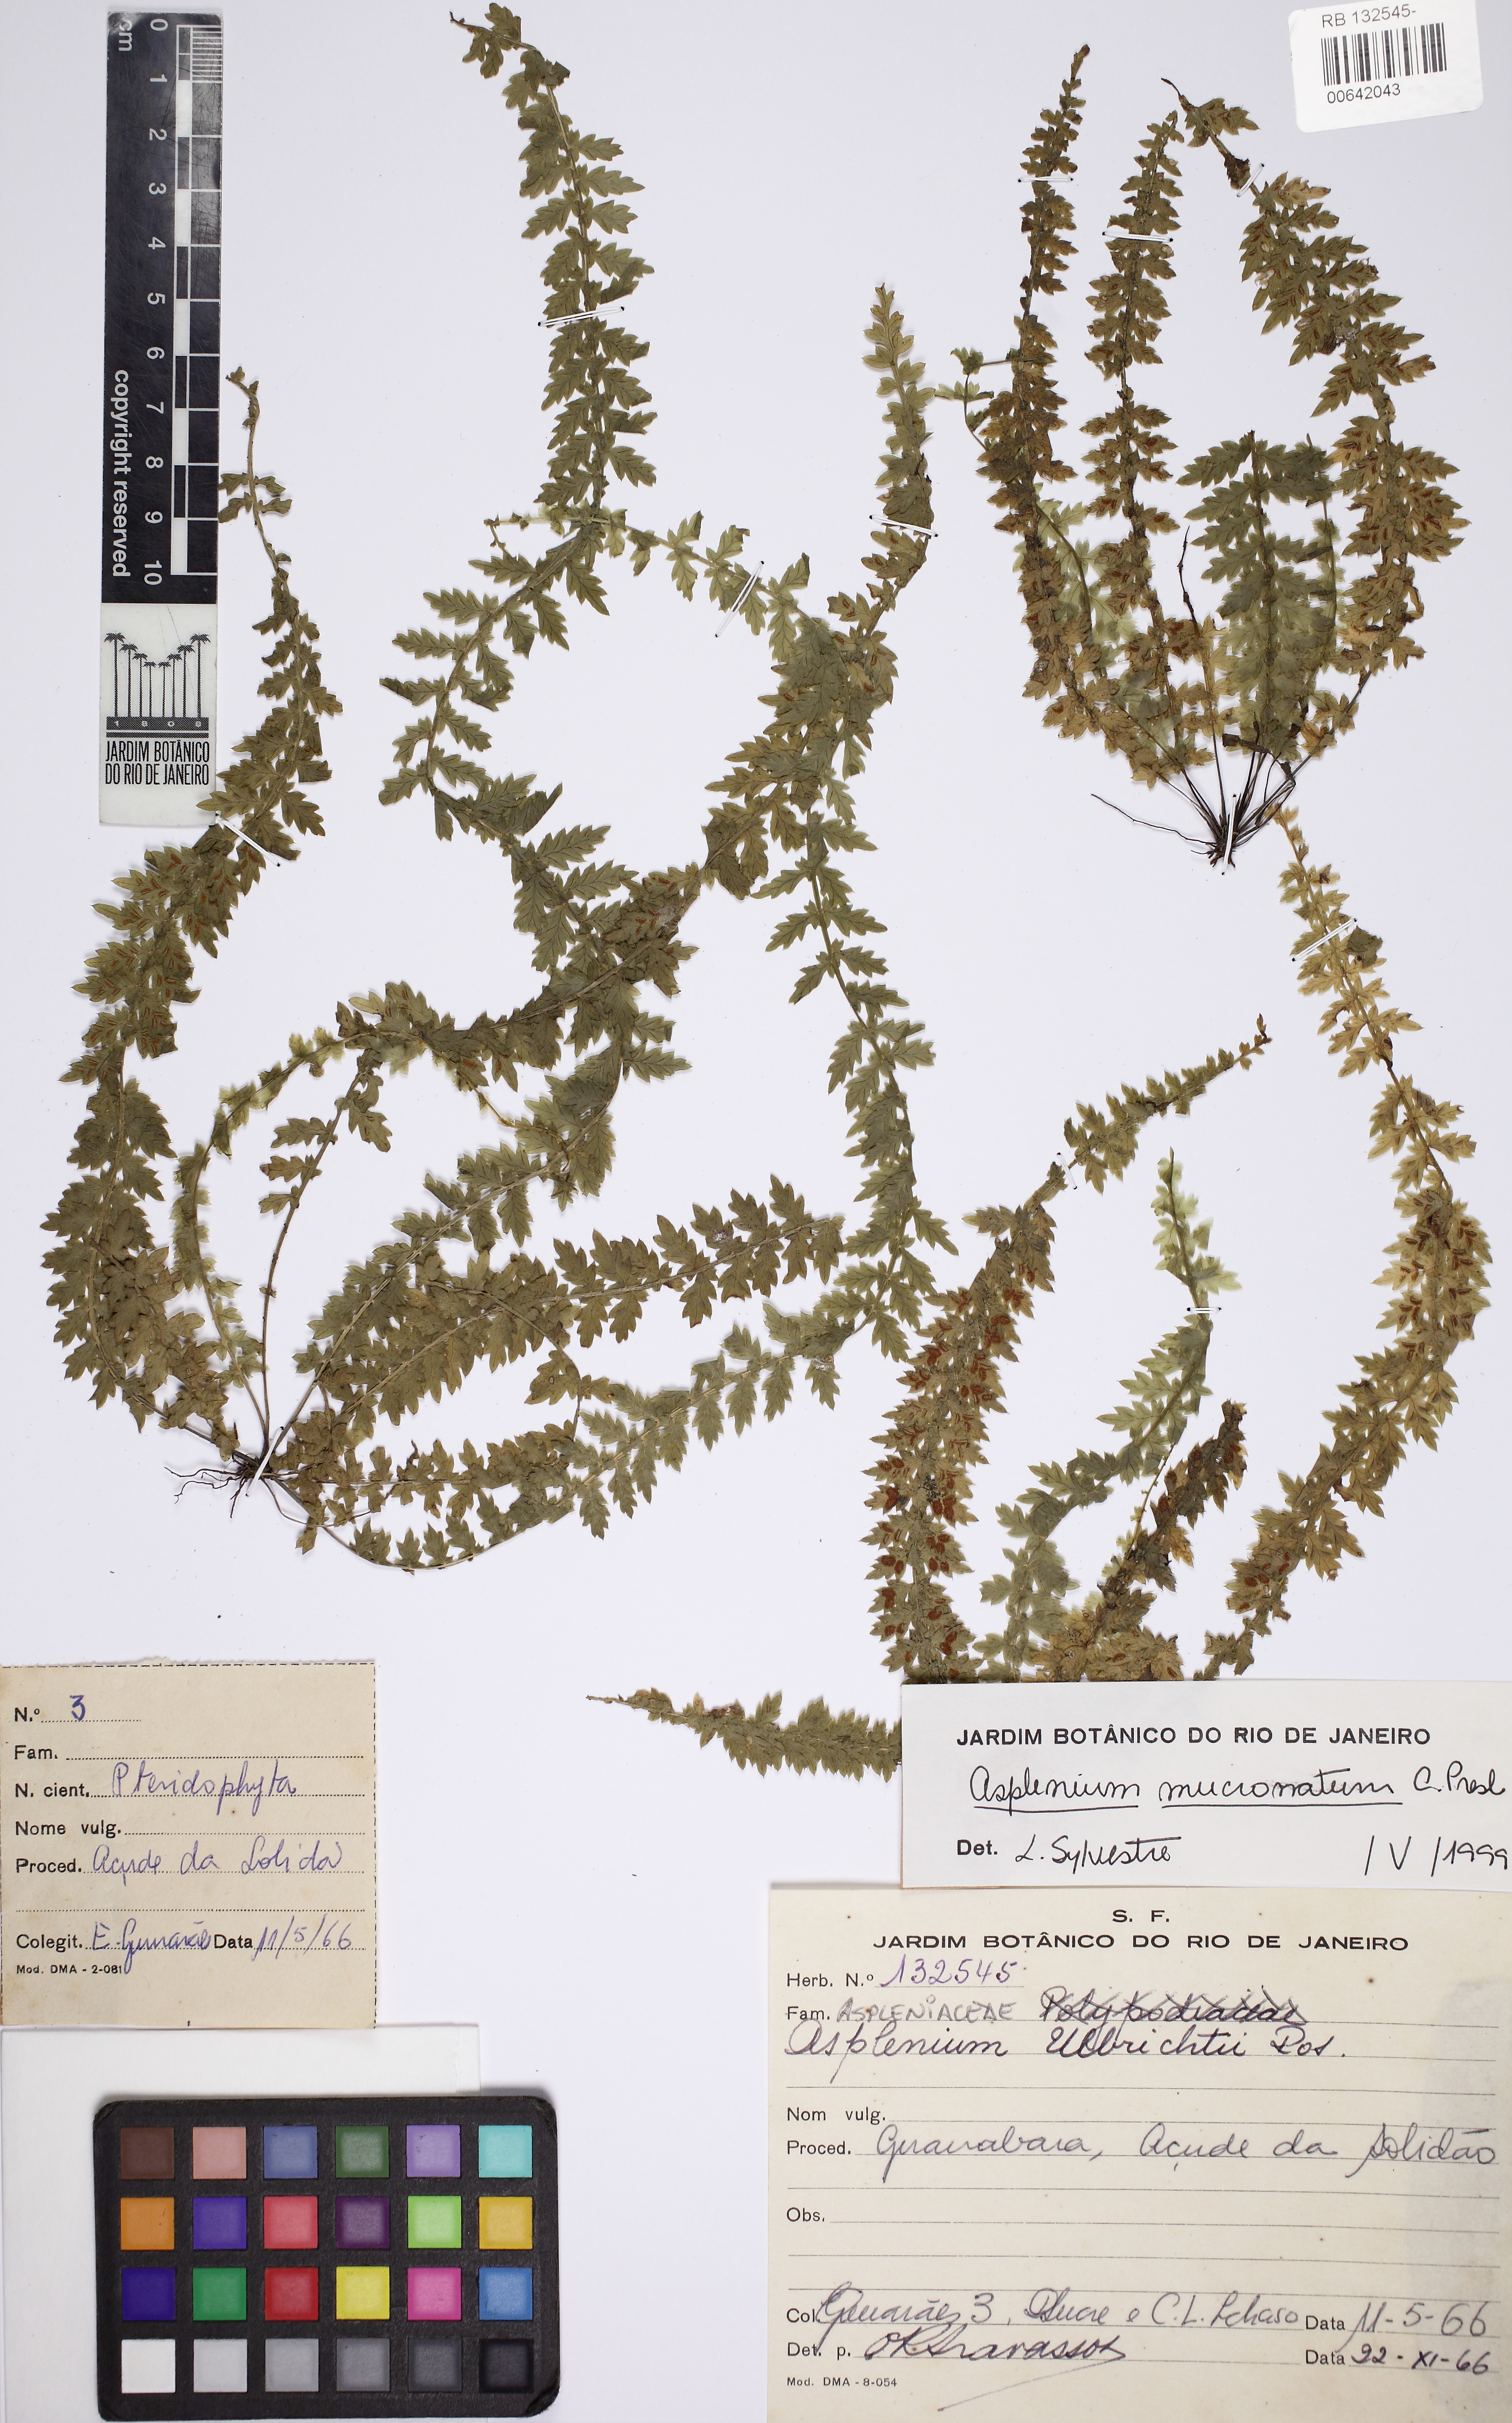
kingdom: Plantae
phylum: Tracheophyta
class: Polypodiopsida
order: Polypodiales
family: Aspleniaceae
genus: Asplenium
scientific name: Asplenium mucronatum
